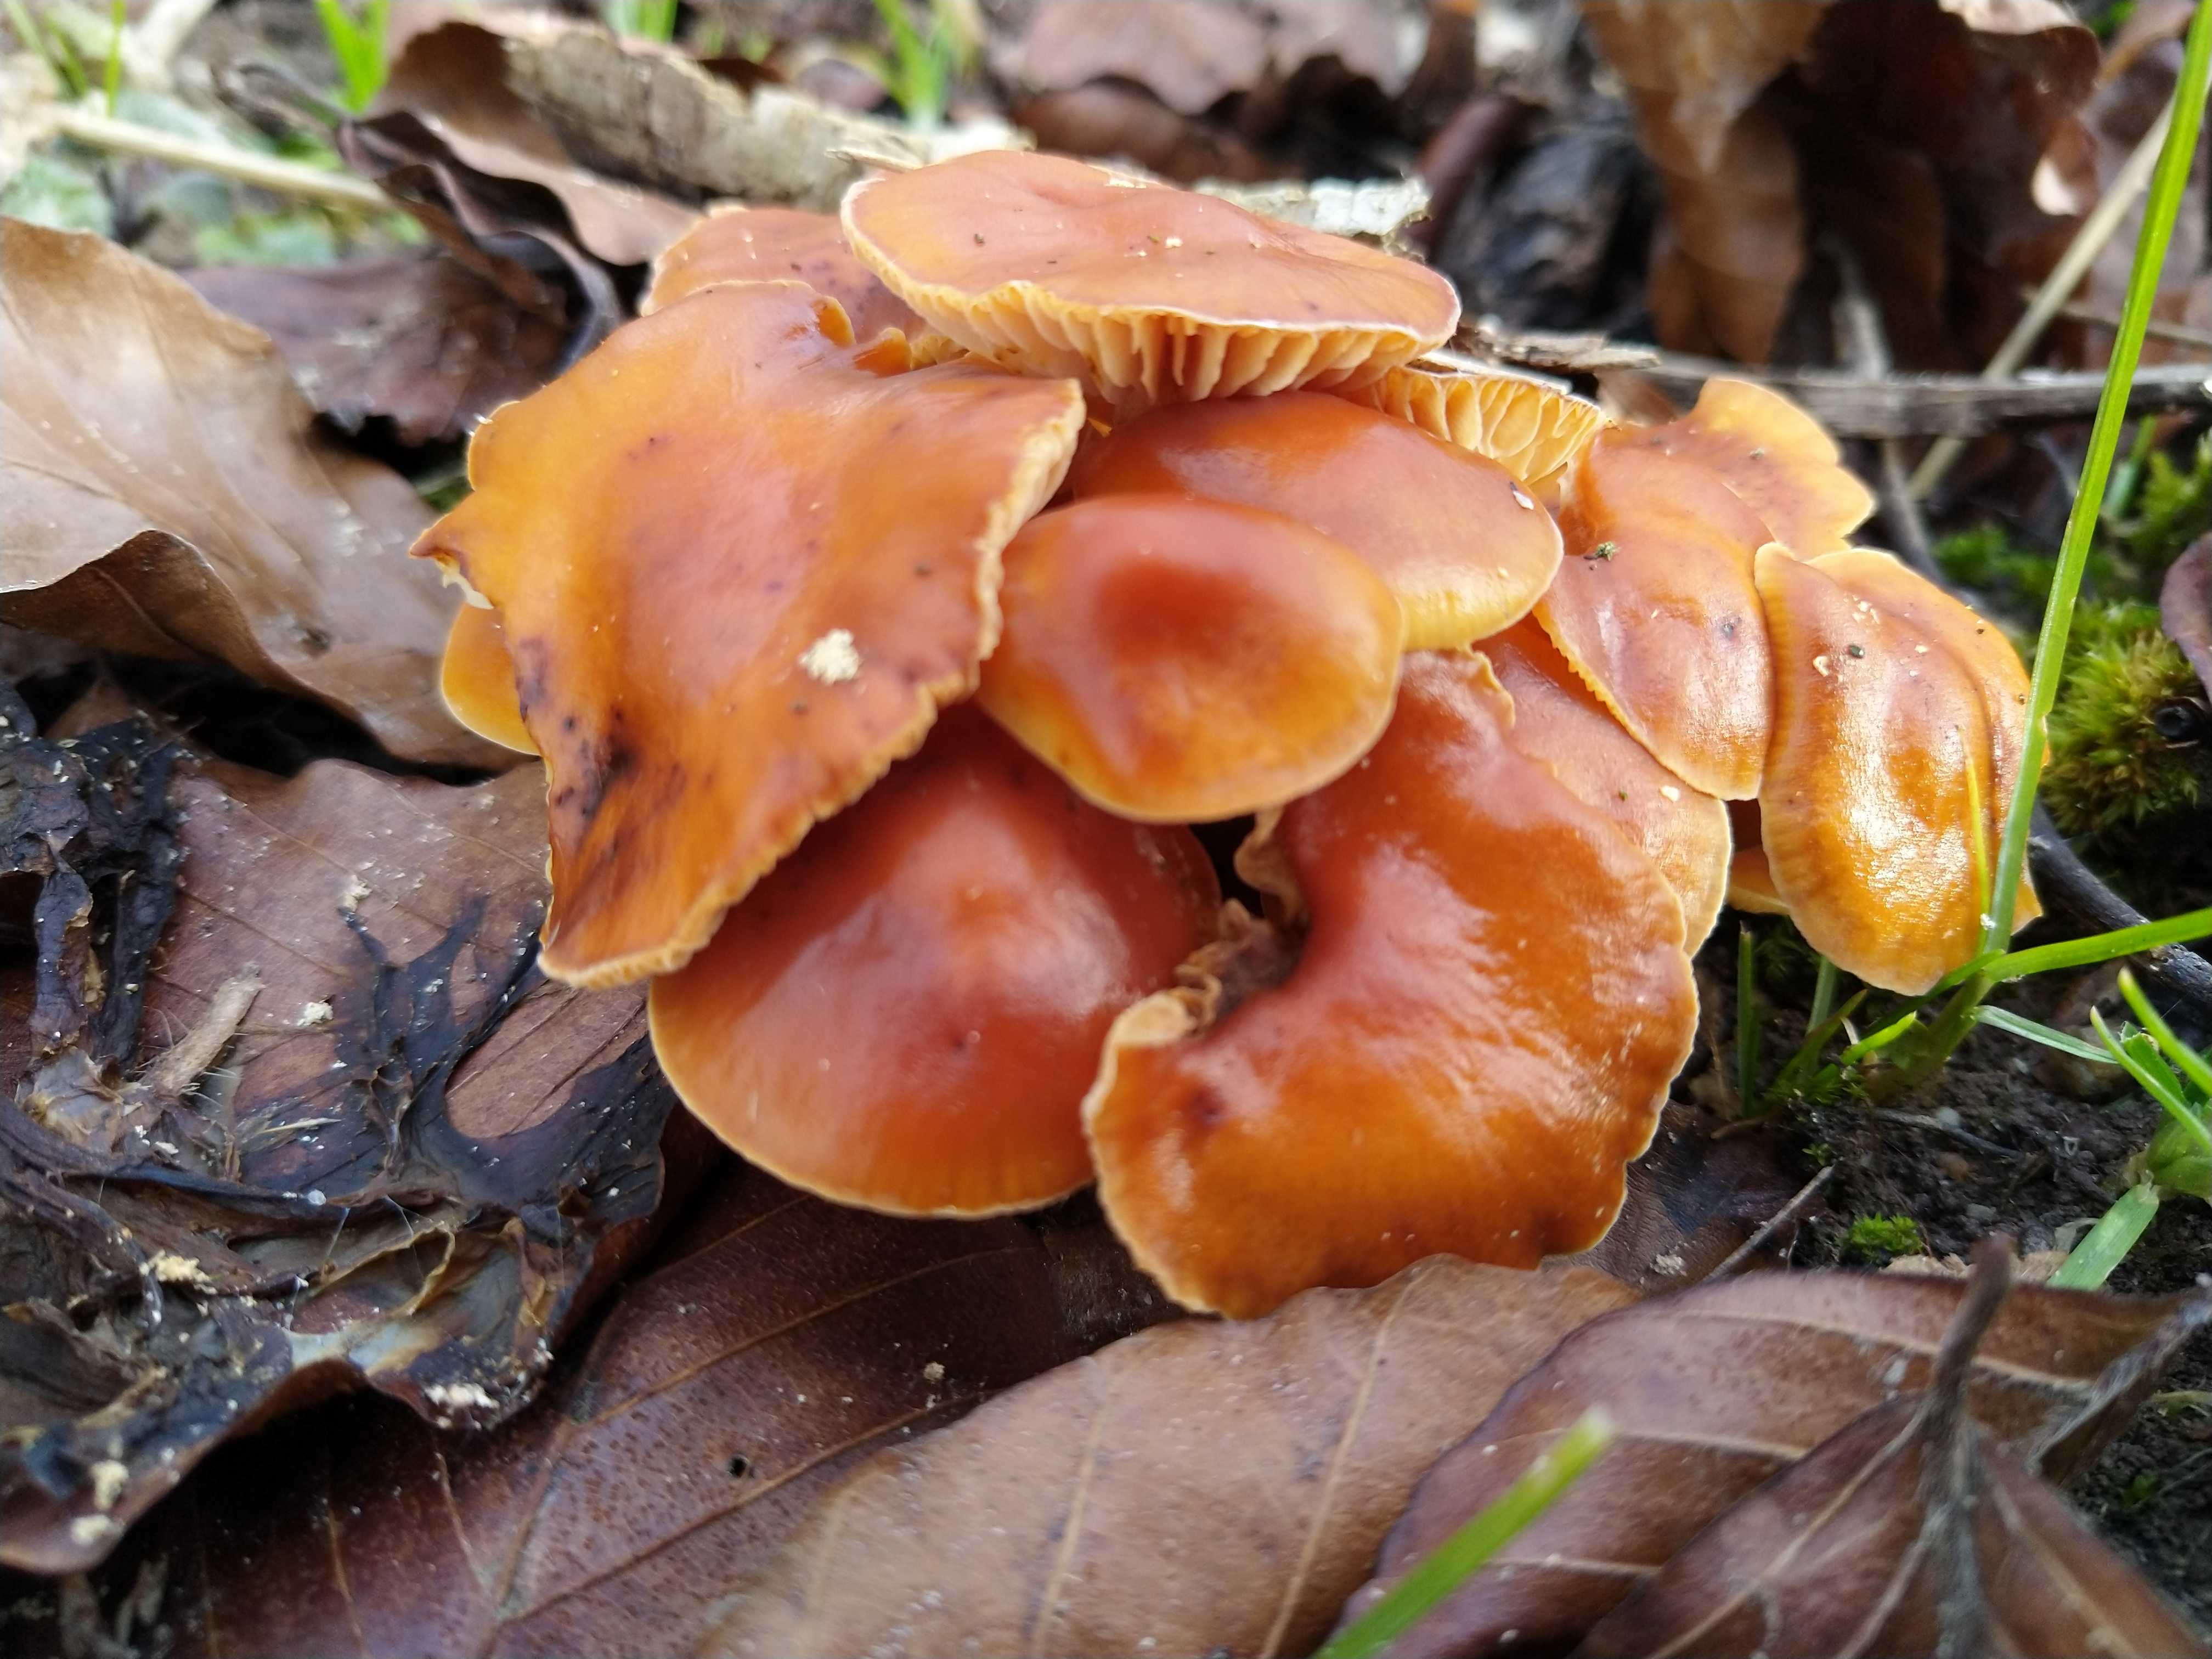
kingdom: Fungi
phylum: Basidiomycota
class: Agaricomycetes
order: Agaricales
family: Physalacriaceae
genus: Flammulina
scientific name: Flammulina velutipes
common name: gul fløjlsfod
